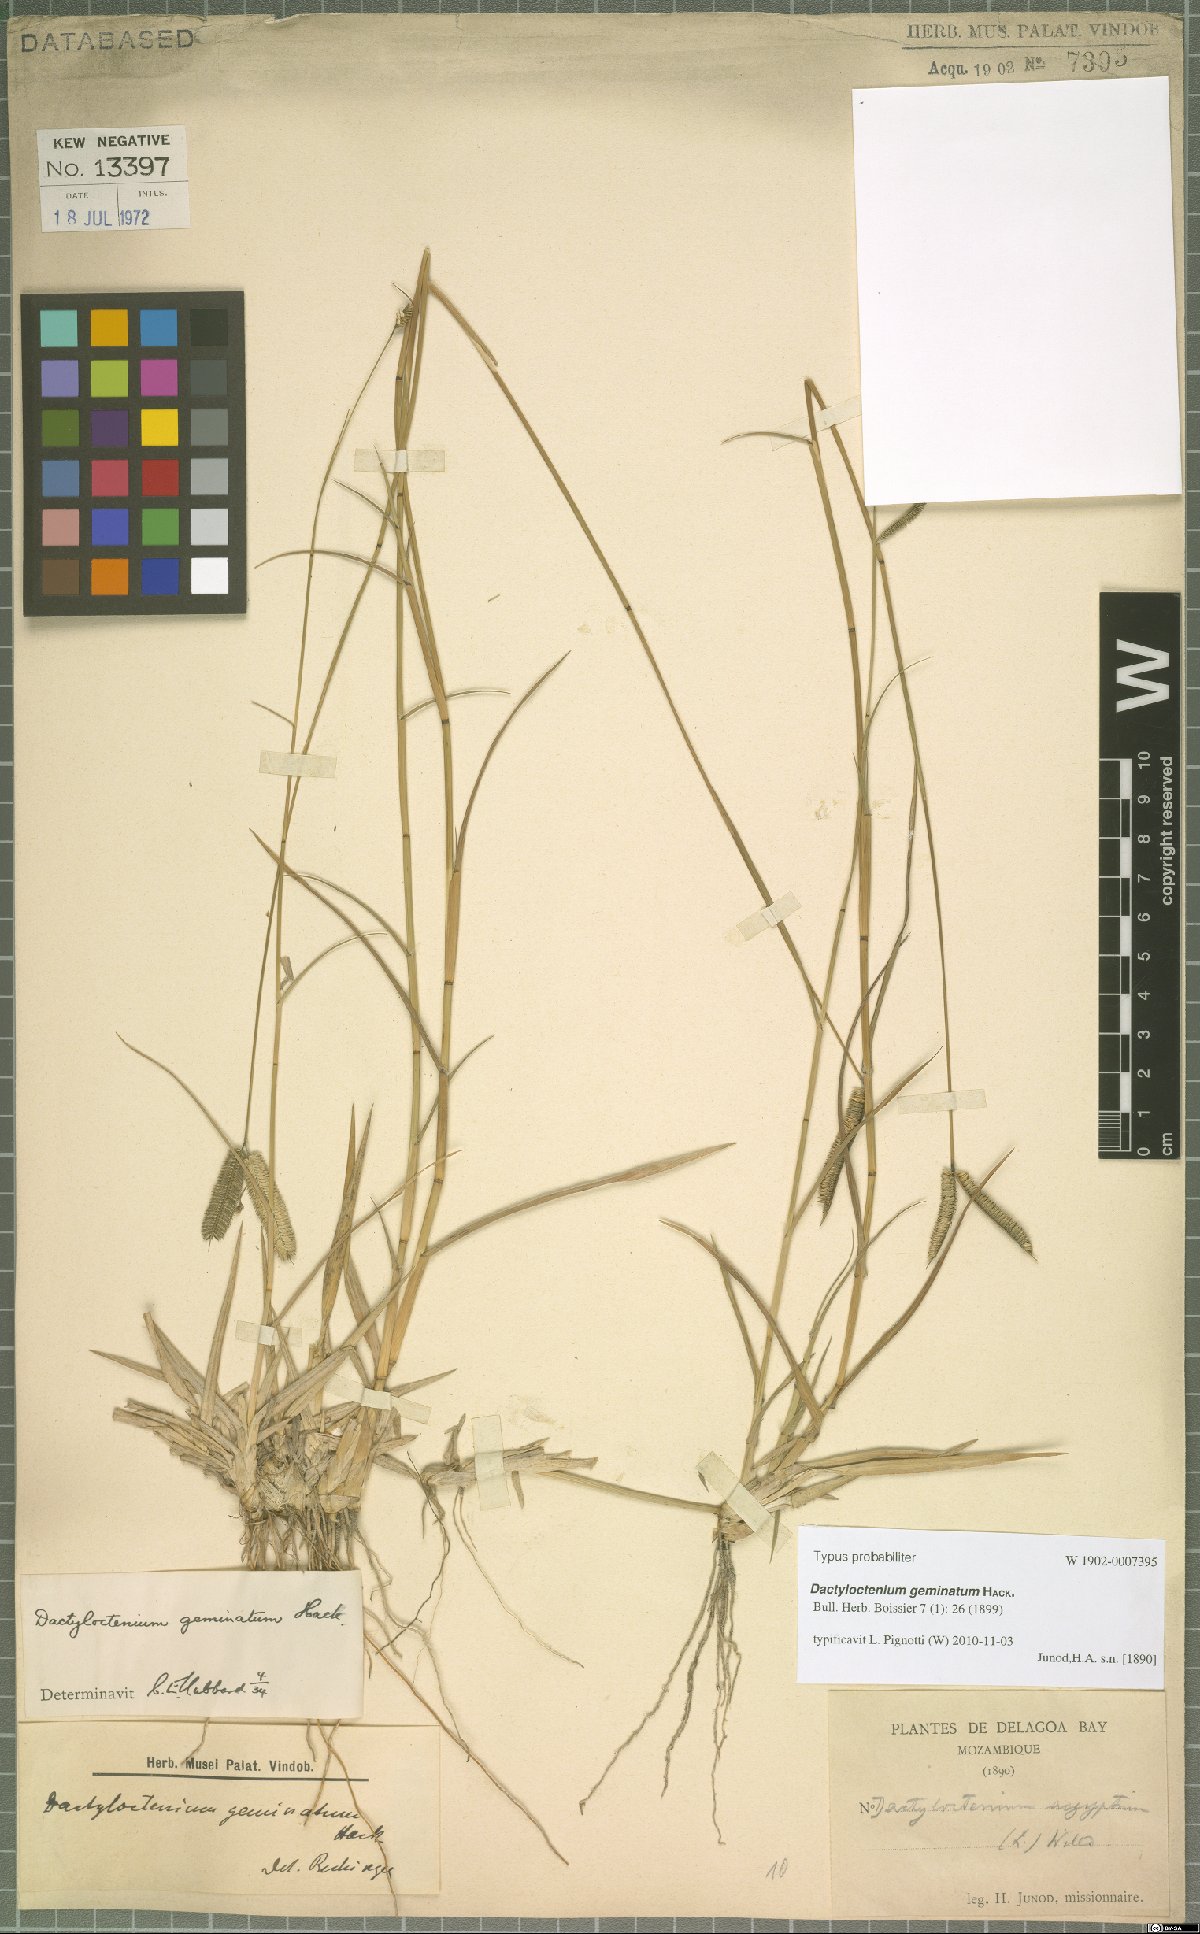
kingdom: Plantae
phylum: Tracheophyta
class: Liliopsida
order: Poales
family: Poaceae
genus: Dactyloctenium
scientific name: Dactyloctenium geminatum
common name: Crowsfoot grass
